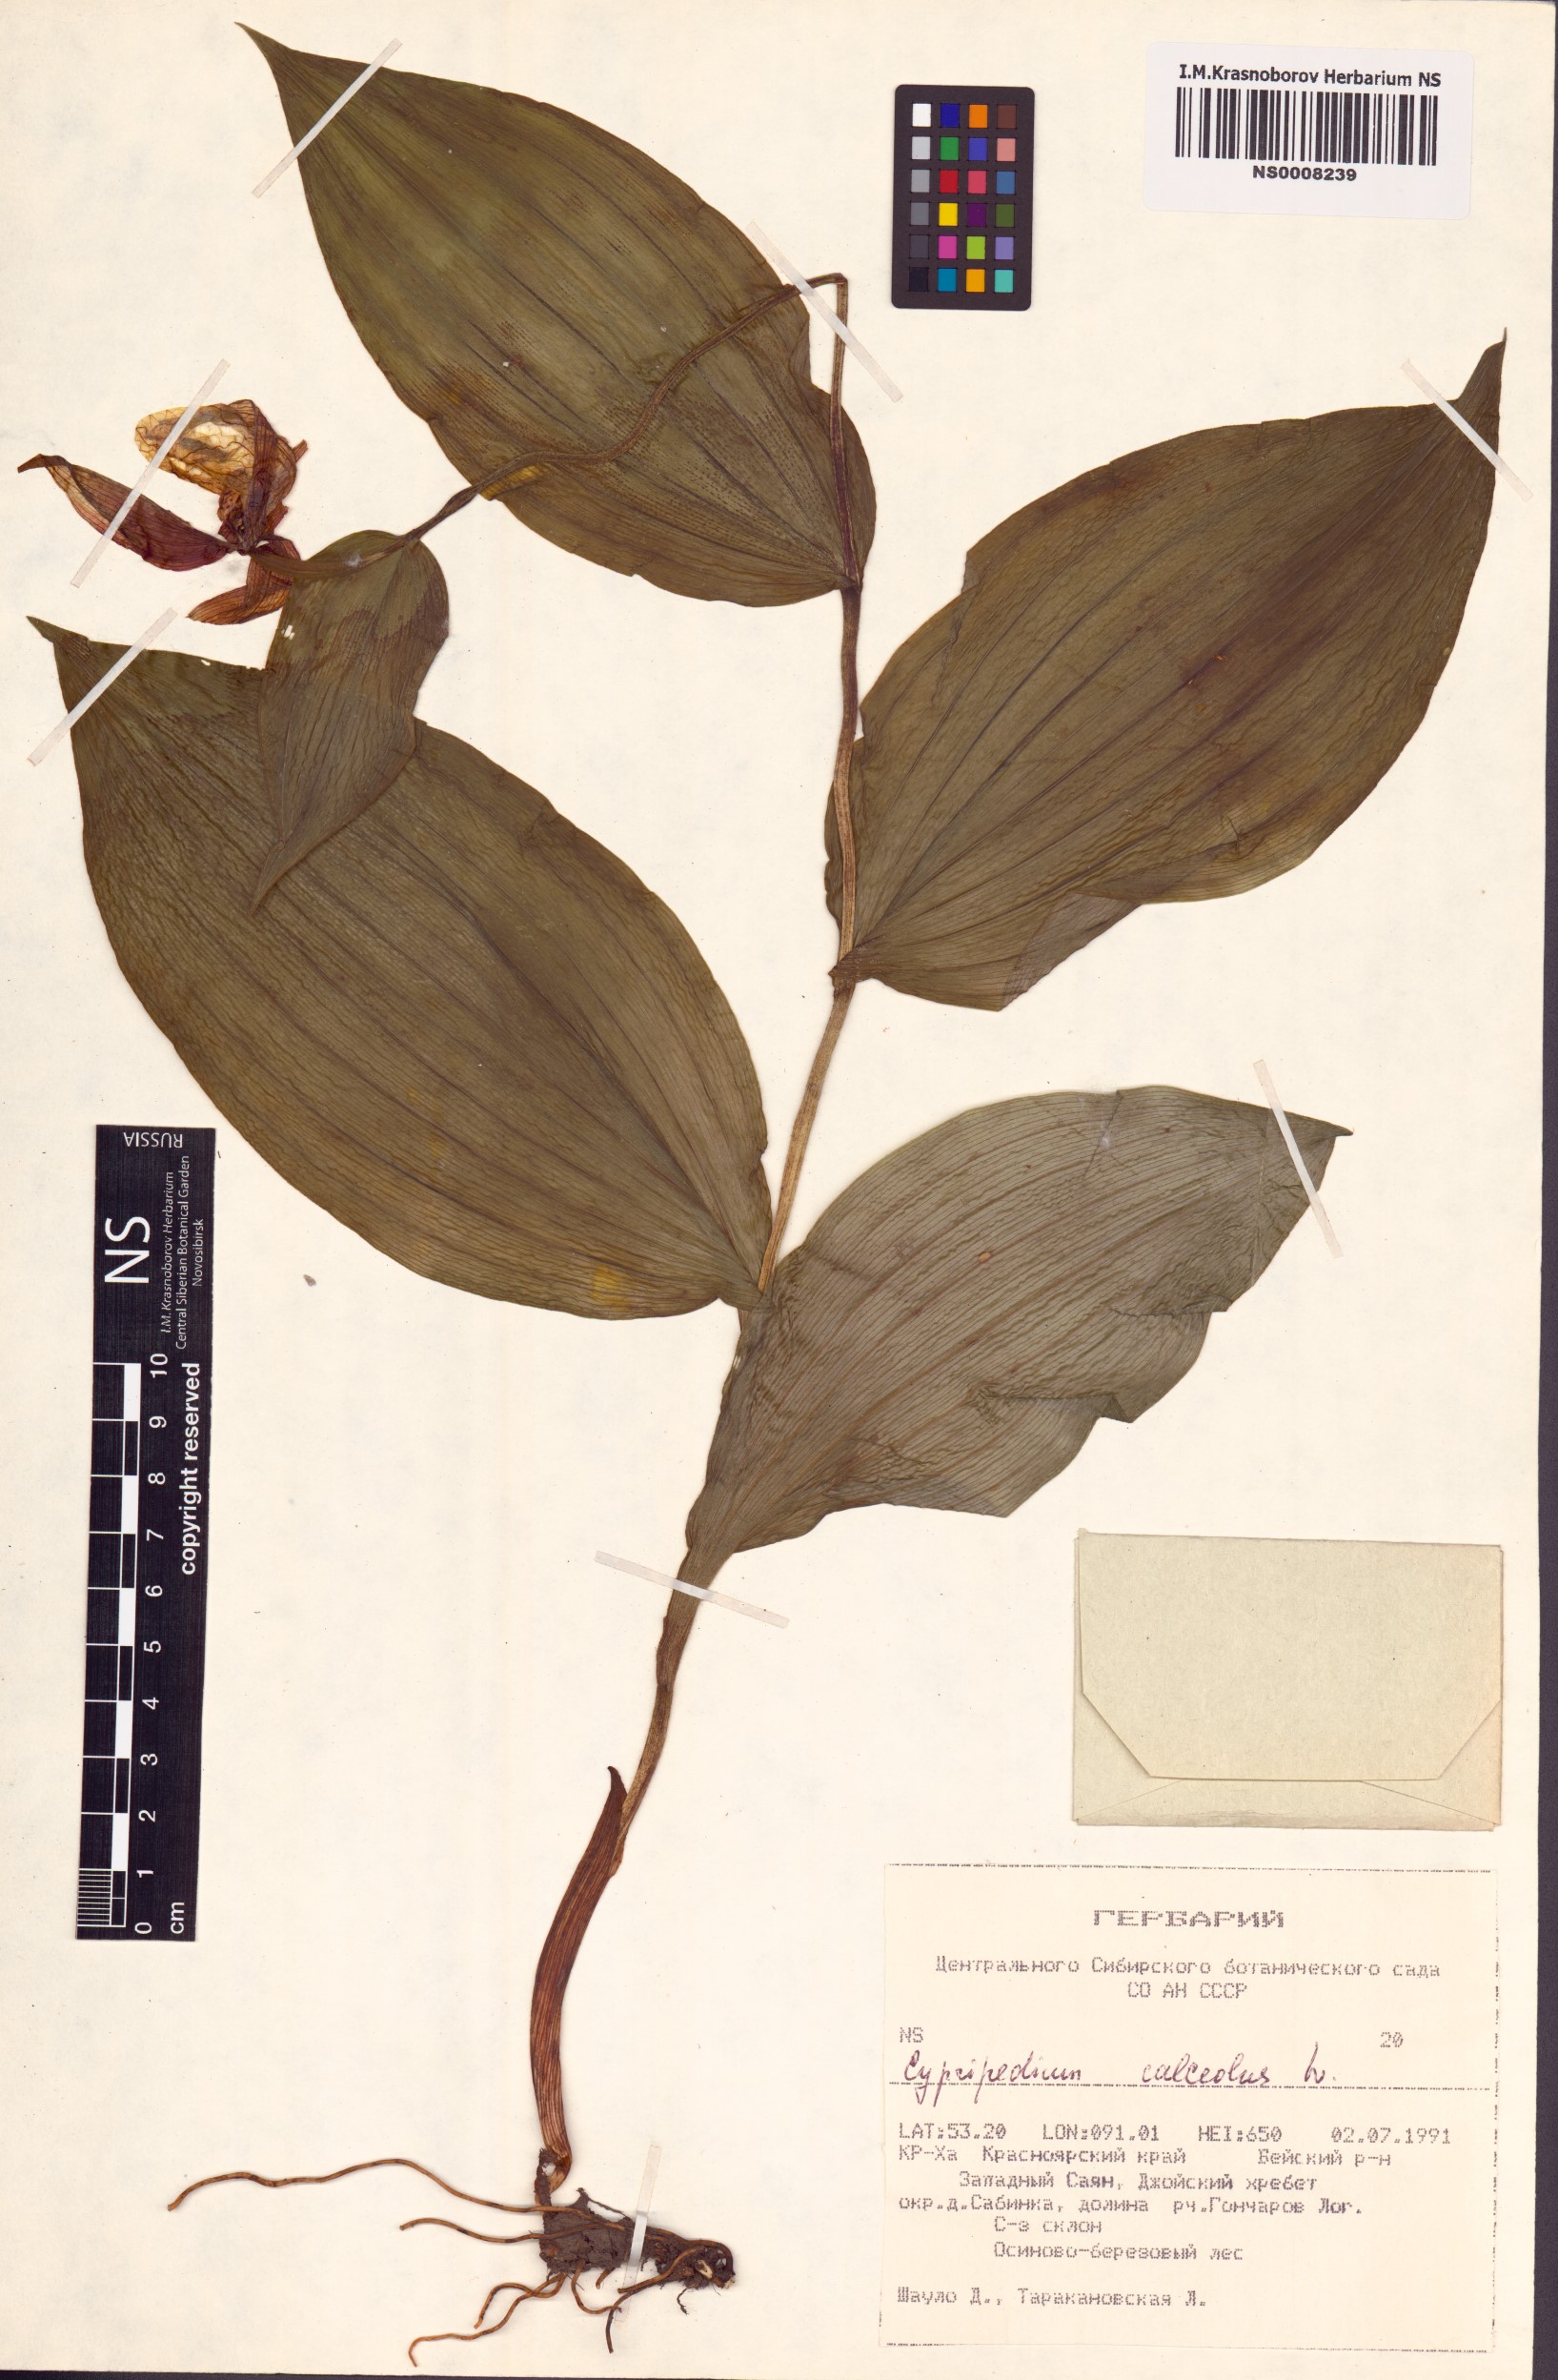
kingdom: Plantae
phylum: Tracheophyta
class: Liliopsida
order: Asparagales
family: Orchidaceae
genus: Cypripedium
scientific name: Cypripedium calceolus
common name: Lady's-slipper
